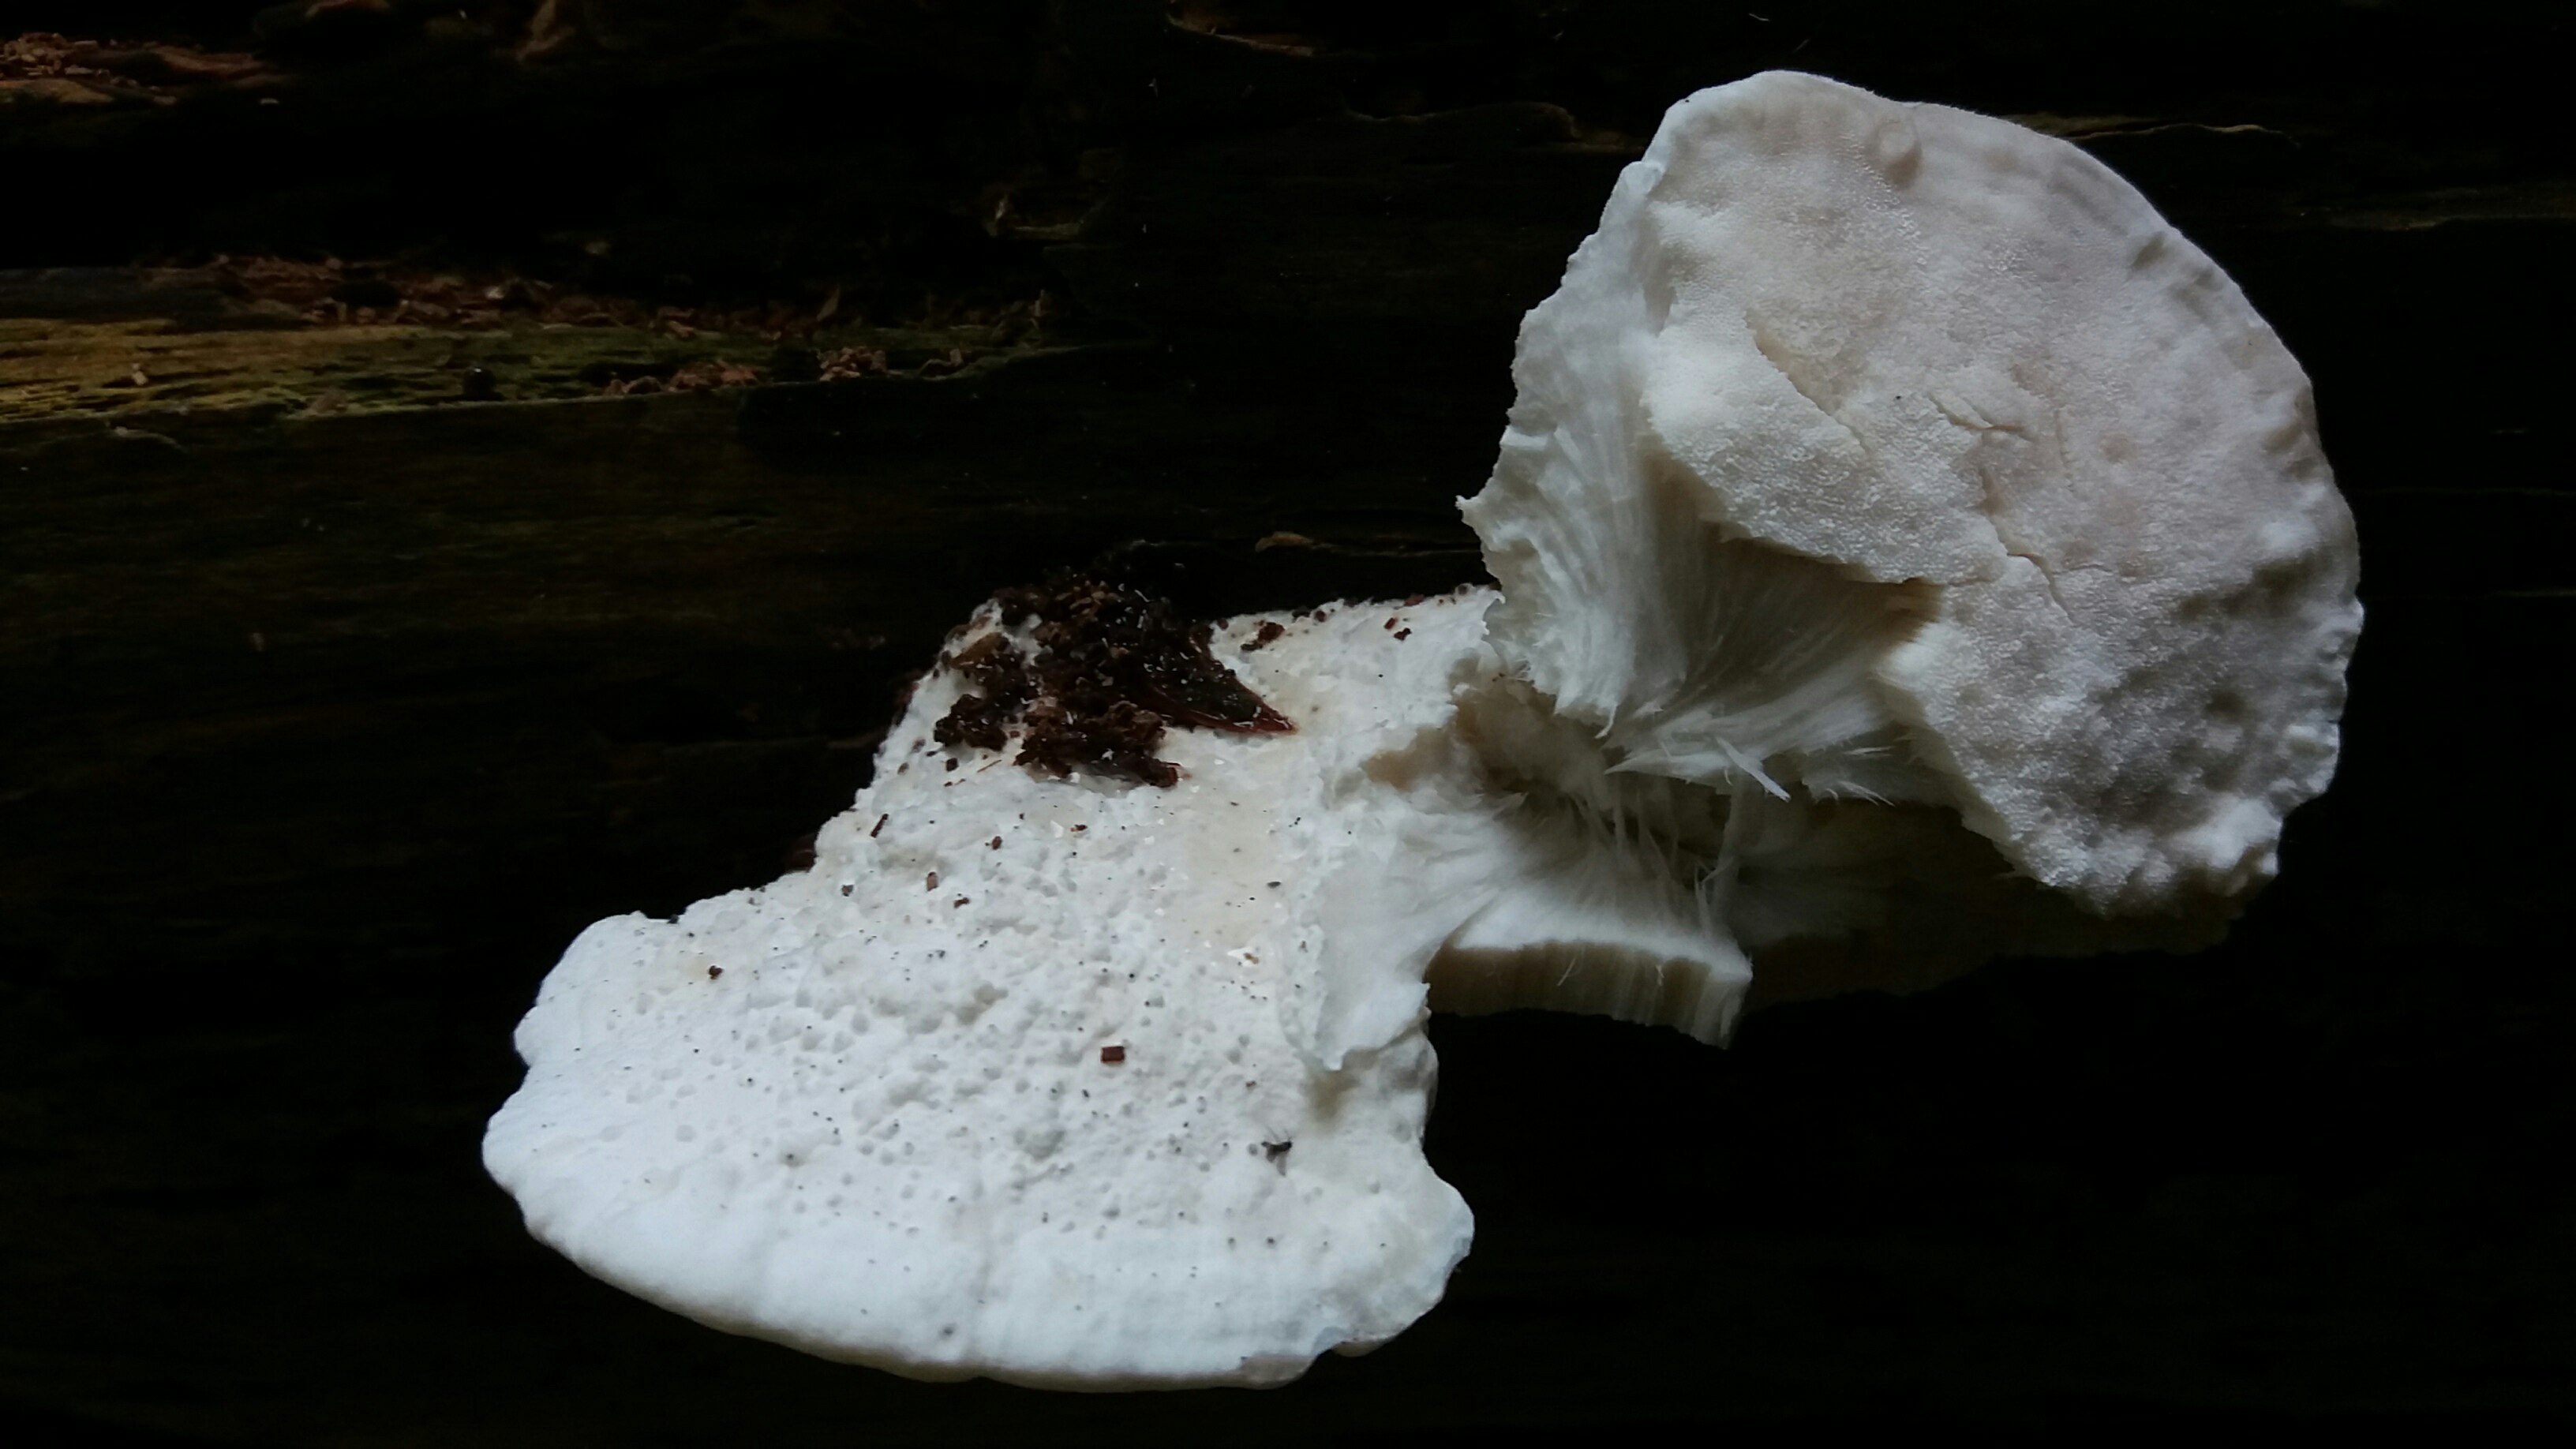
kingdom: Fungi
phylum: Basidiomycota
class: Agaricomycetes
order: Polyporales
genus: Amaropostia
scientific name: Amaropostia stiptica
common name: bitter kødporesvamp
